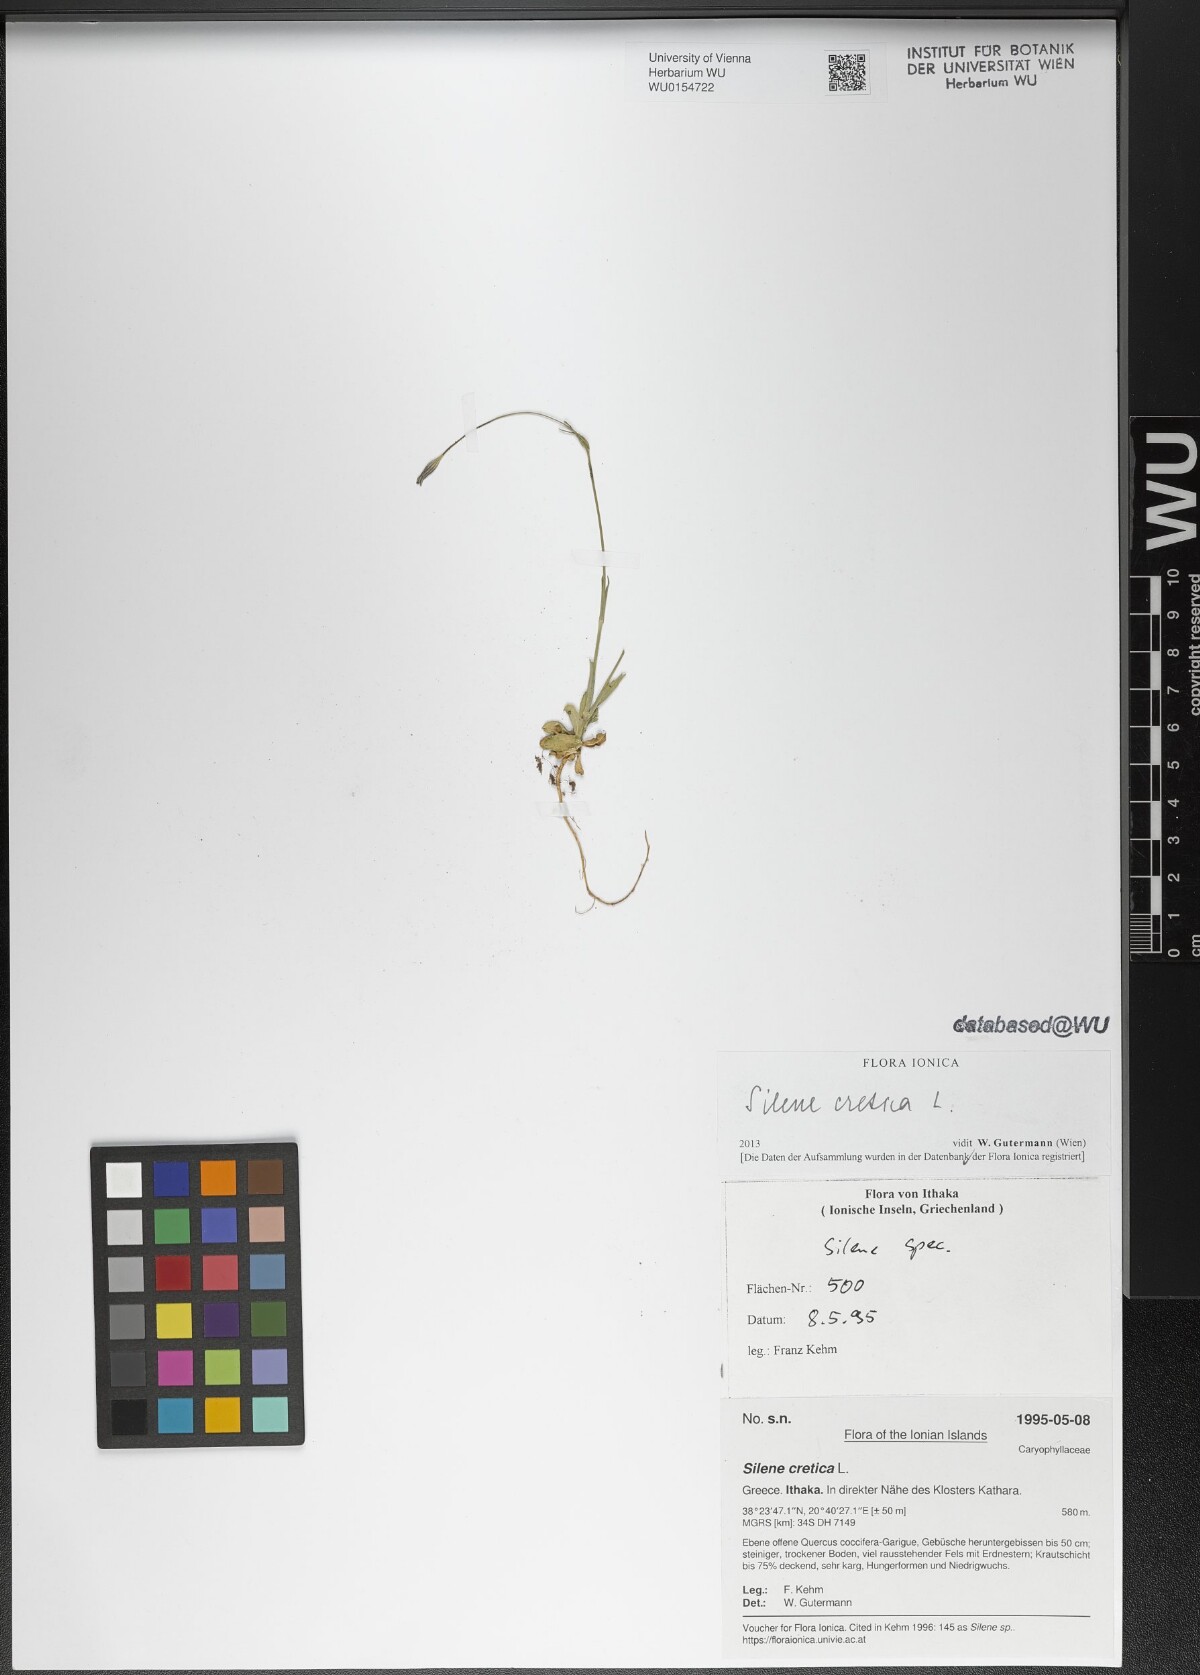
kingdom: Plantae
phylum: Tracheophyta
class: Magnoliopsida
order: Caryophyllales
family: Caryophyllaceae
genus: Silene
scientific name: Silene cretica
